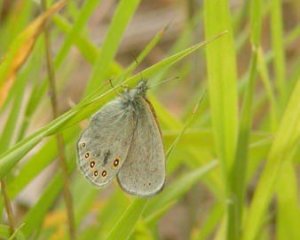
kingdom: Animalia
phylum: Arthropoda
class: Insecta
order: Lepidoptera
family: Nymphalidae
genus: Coenonympha
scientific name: Coenonympha haydeni
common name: Hayden's Ringlet
